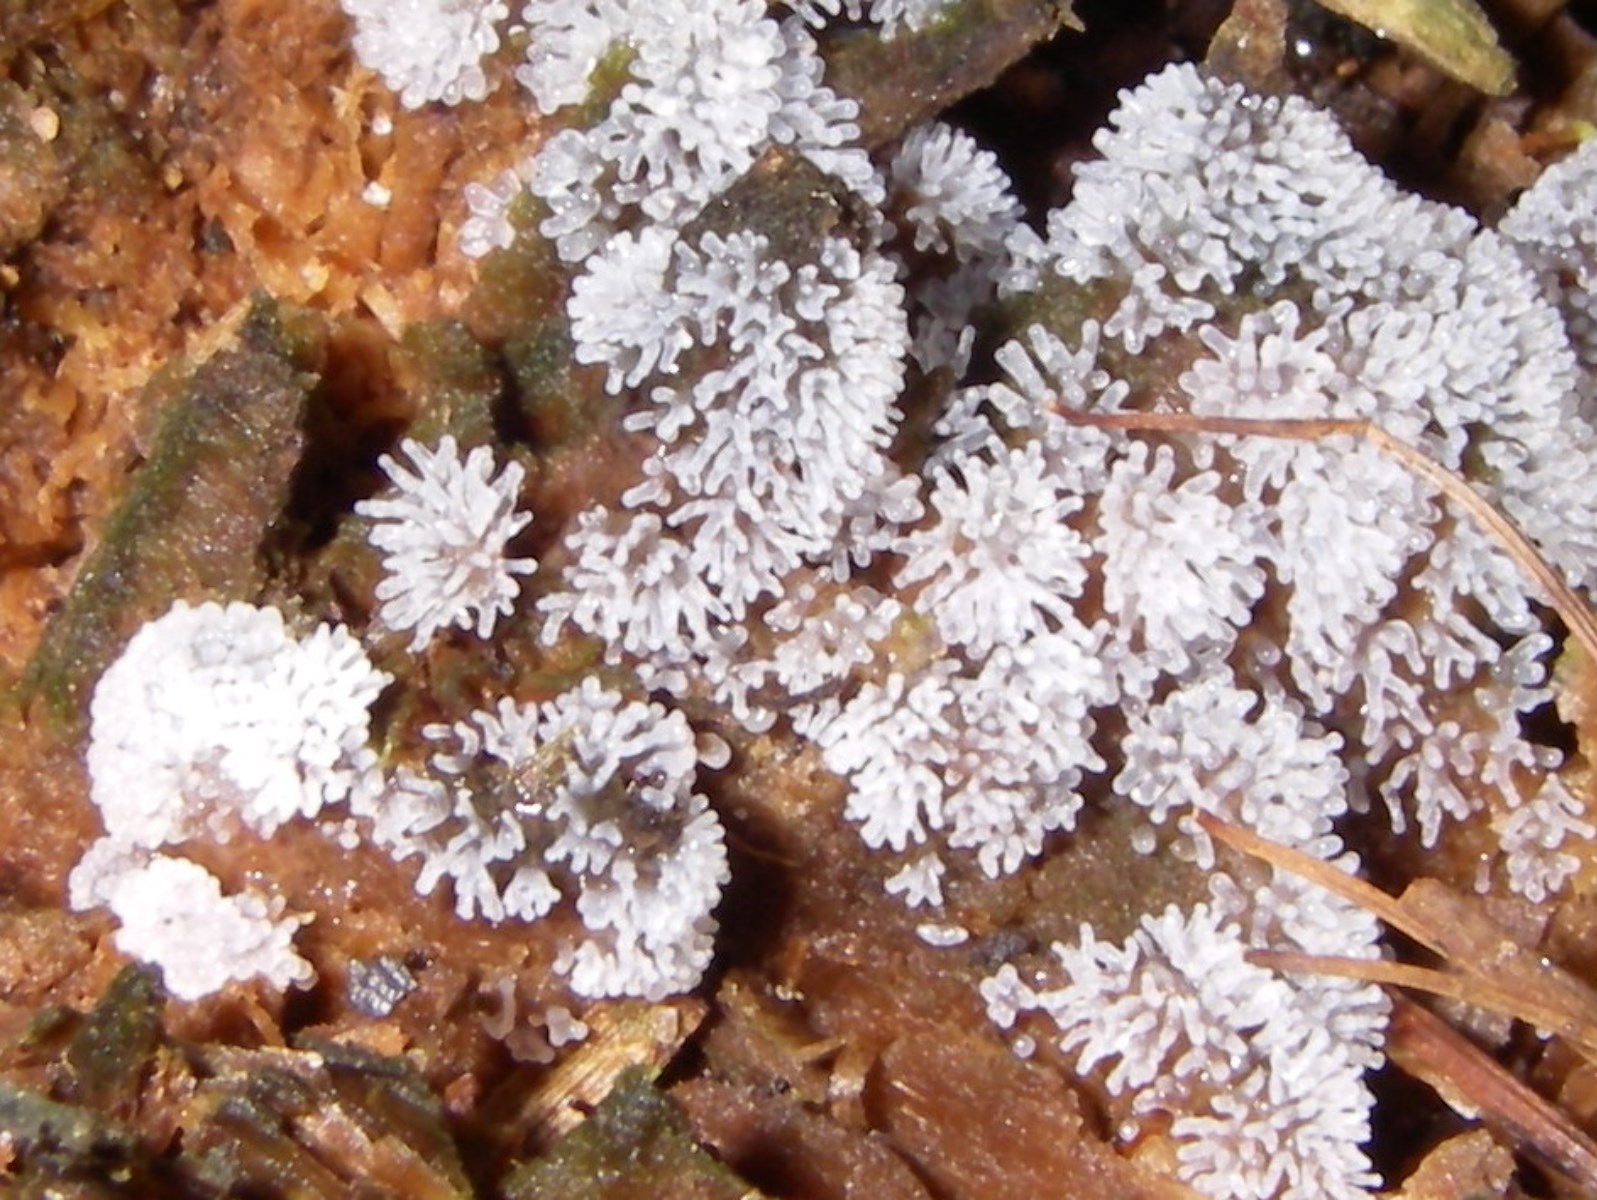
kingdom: Protozoa
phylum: Mycetozoa
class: Protosteliomycetes
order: Ceratiomyxales
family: Ceratiomyxaceae
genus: Ceratiomyxa
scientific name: Ceratiomyxa fruticulosa
